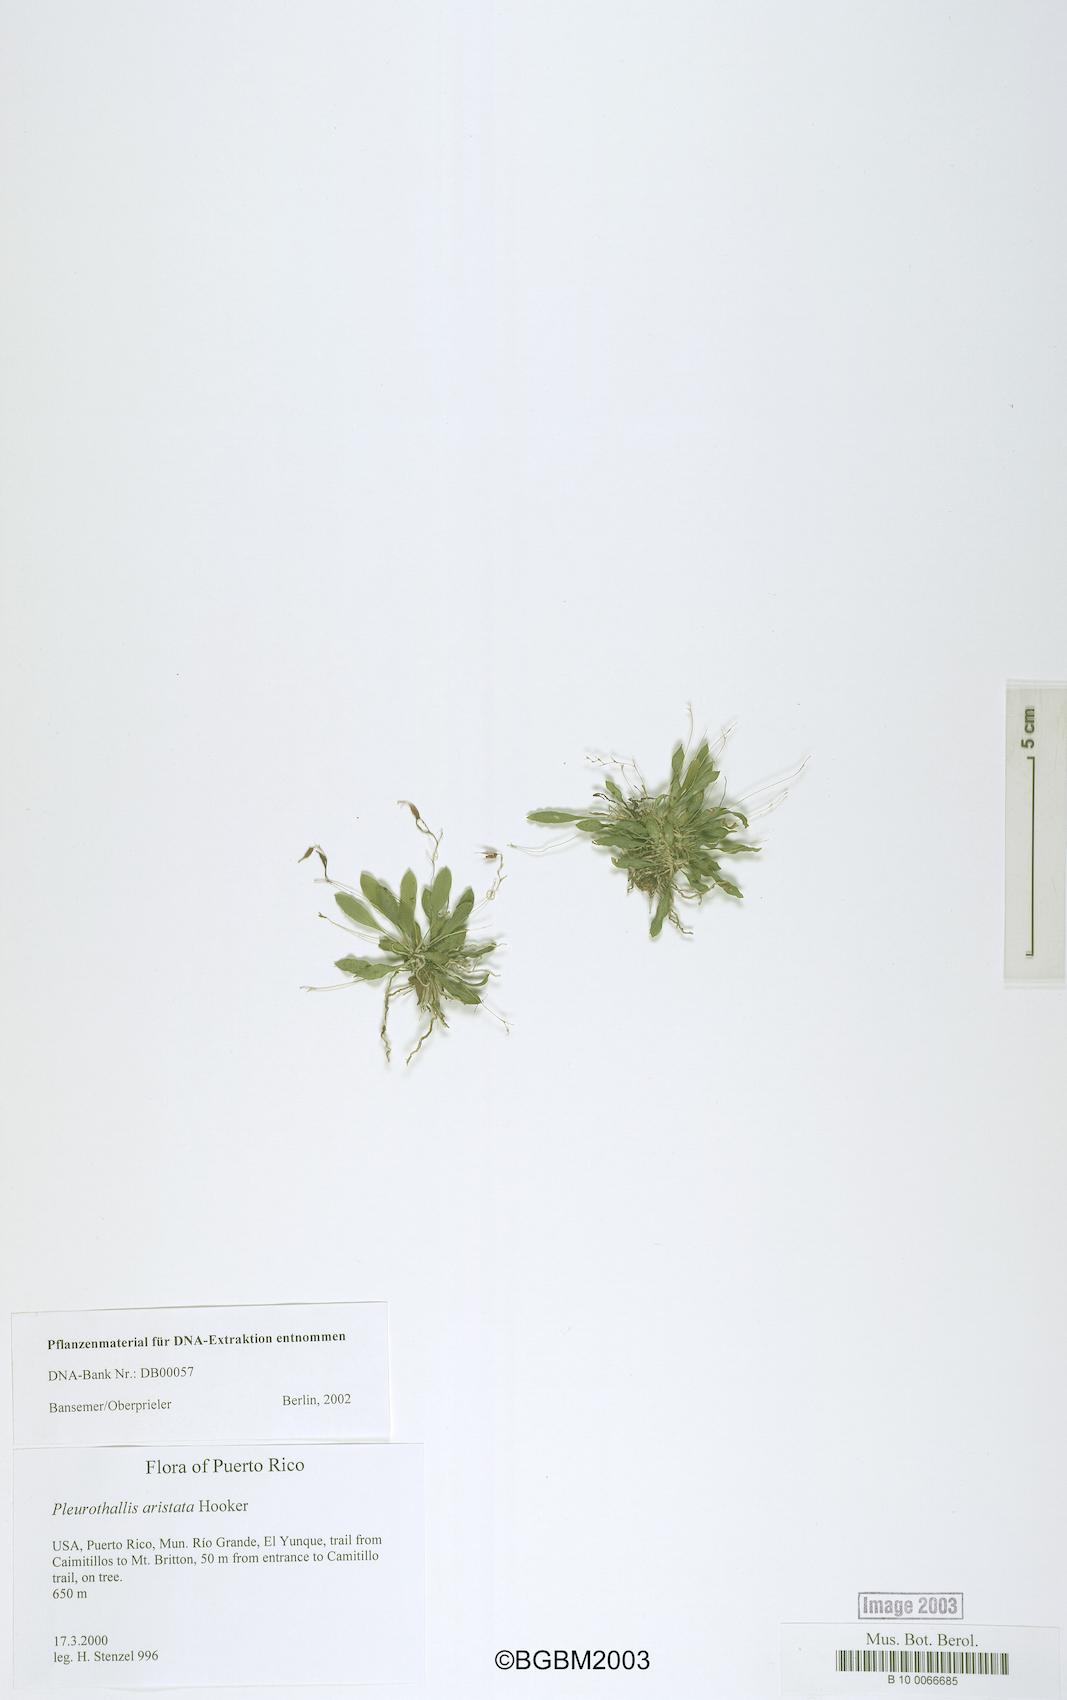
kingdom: Plantae
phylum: Tracheophyta
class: Liliopsida
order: Asparagales
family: Orchidaceae
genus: Muscarella
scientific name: Muscarella aristata
